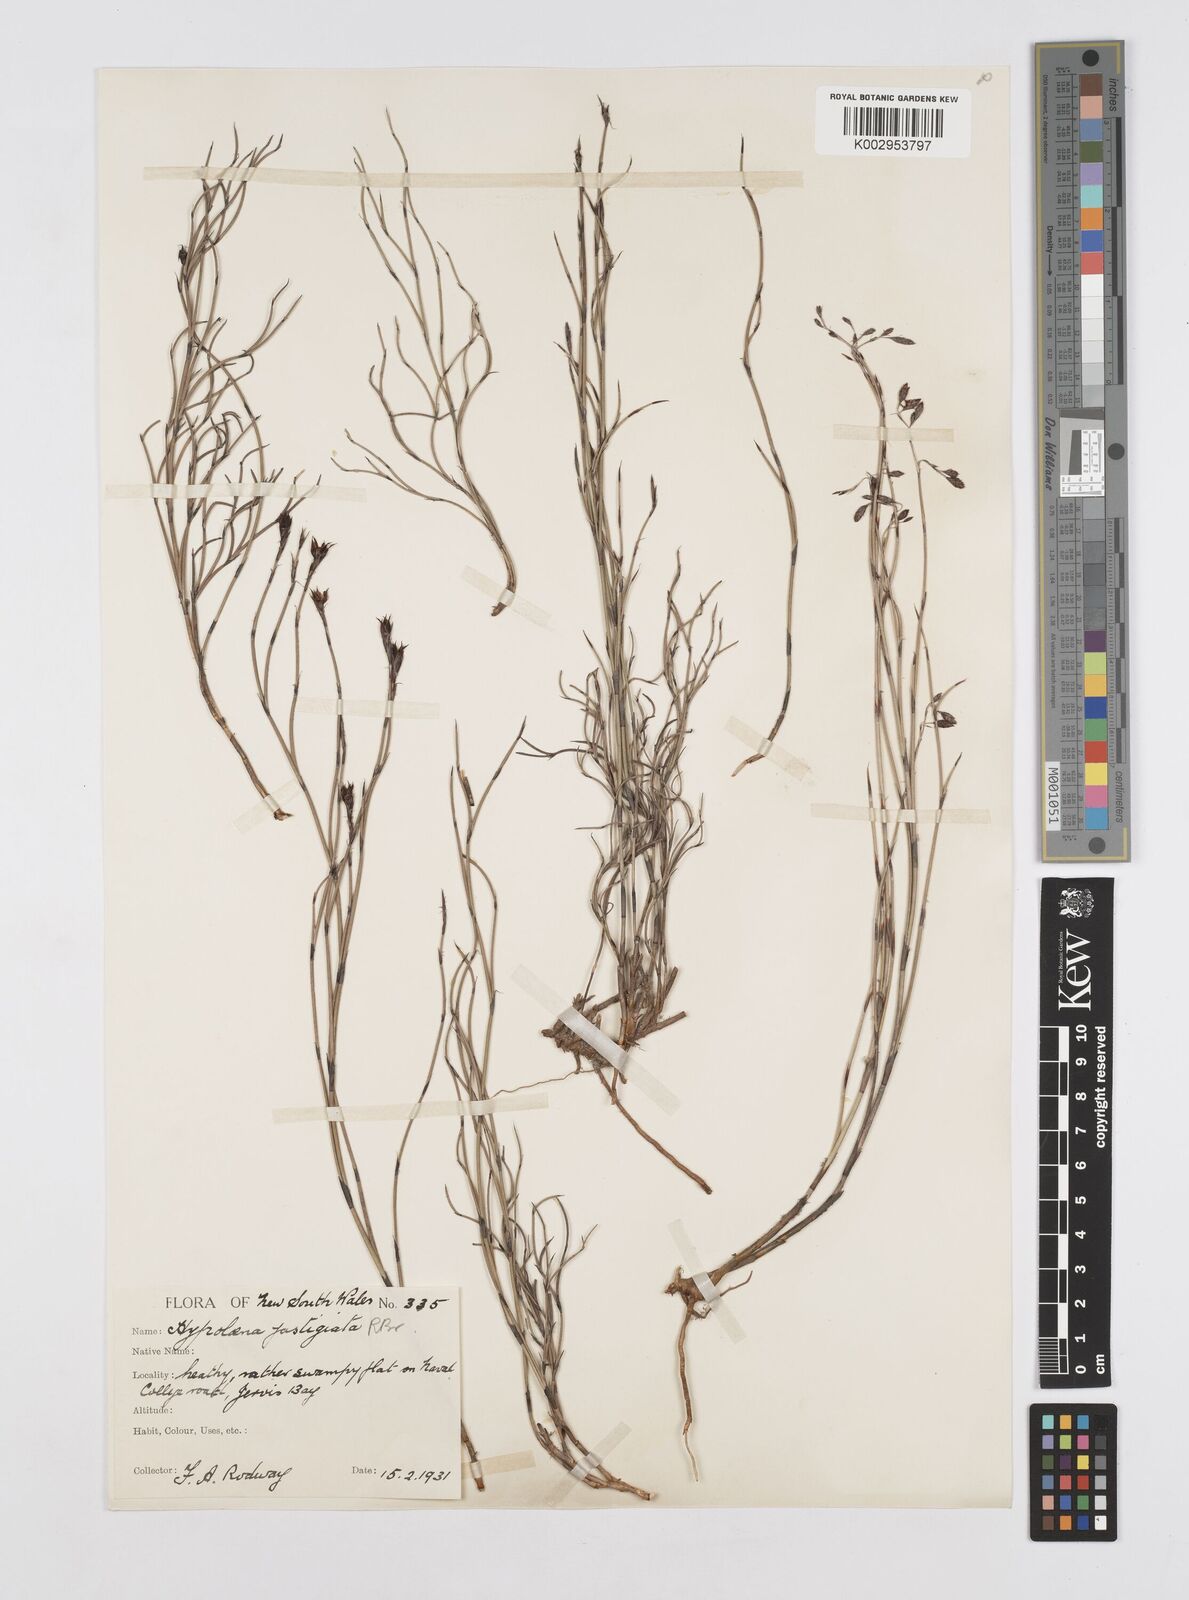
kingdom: Plantae
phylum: Tracheophyta
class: Liliopsida
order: Poales
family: Restionaceae
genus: Hypolaena
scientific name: Hypolaena fastigiata
